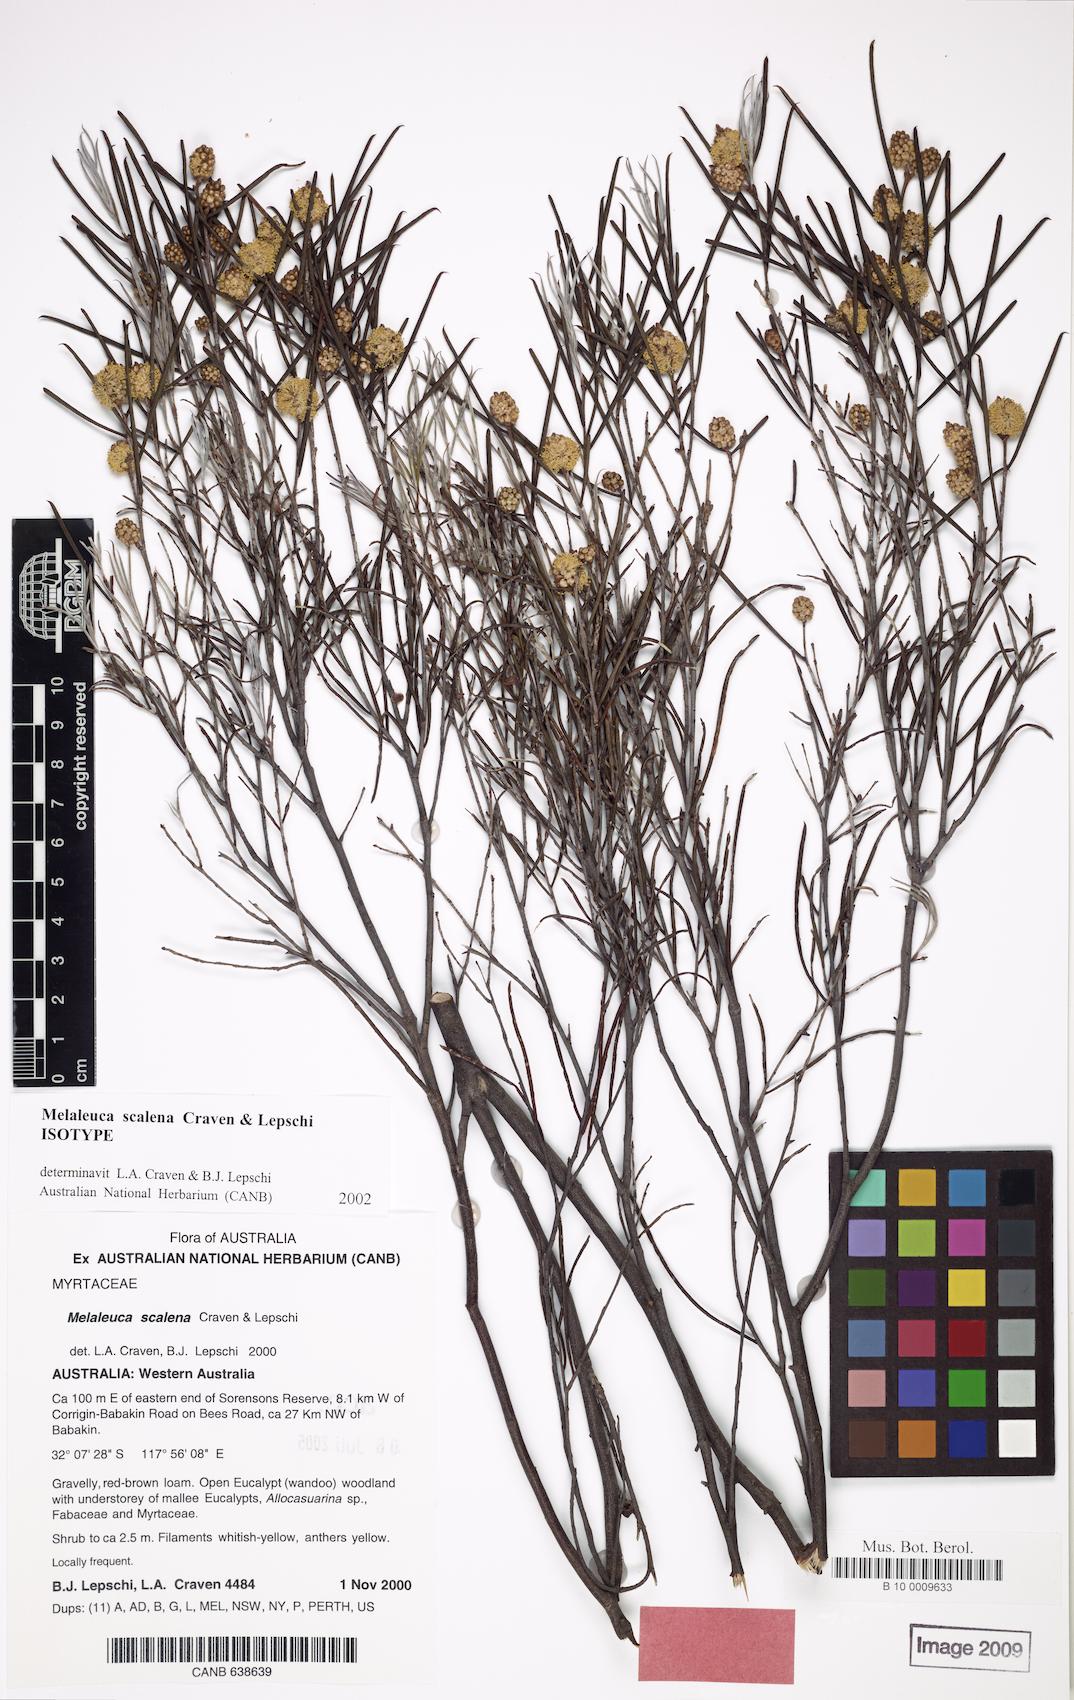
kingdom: Plantae
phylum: Tracheophyta
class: Magnoliopsida
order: Myrtales
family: Myrtaceae
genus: Melaleuca
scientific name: Melaleuca scalena
